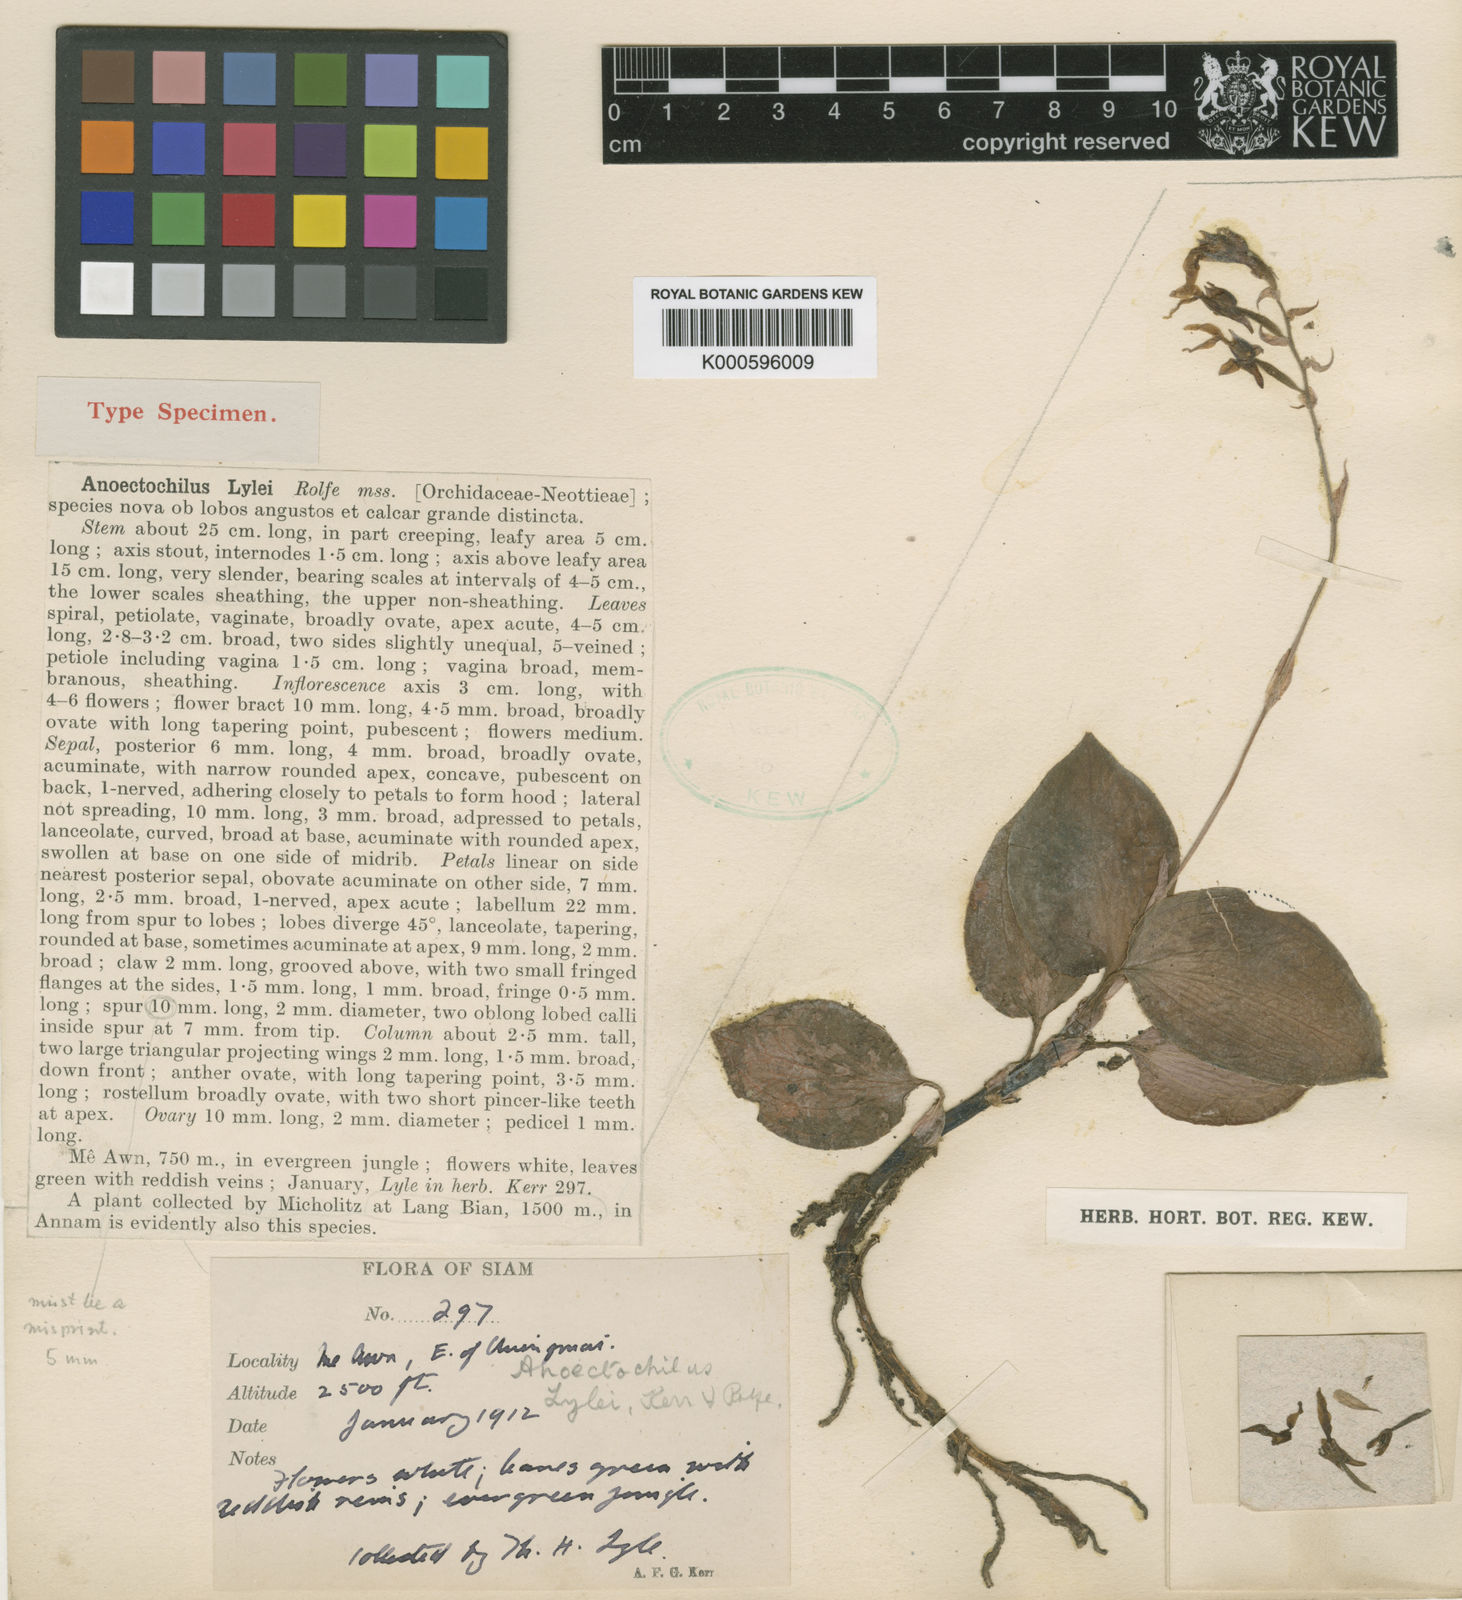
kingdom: Plantae
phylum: Tracheophyta
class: Liliopsida
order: Asparagales
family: Orchidaceae
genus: Anoectochilus
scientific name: Anoectochilus lylei
